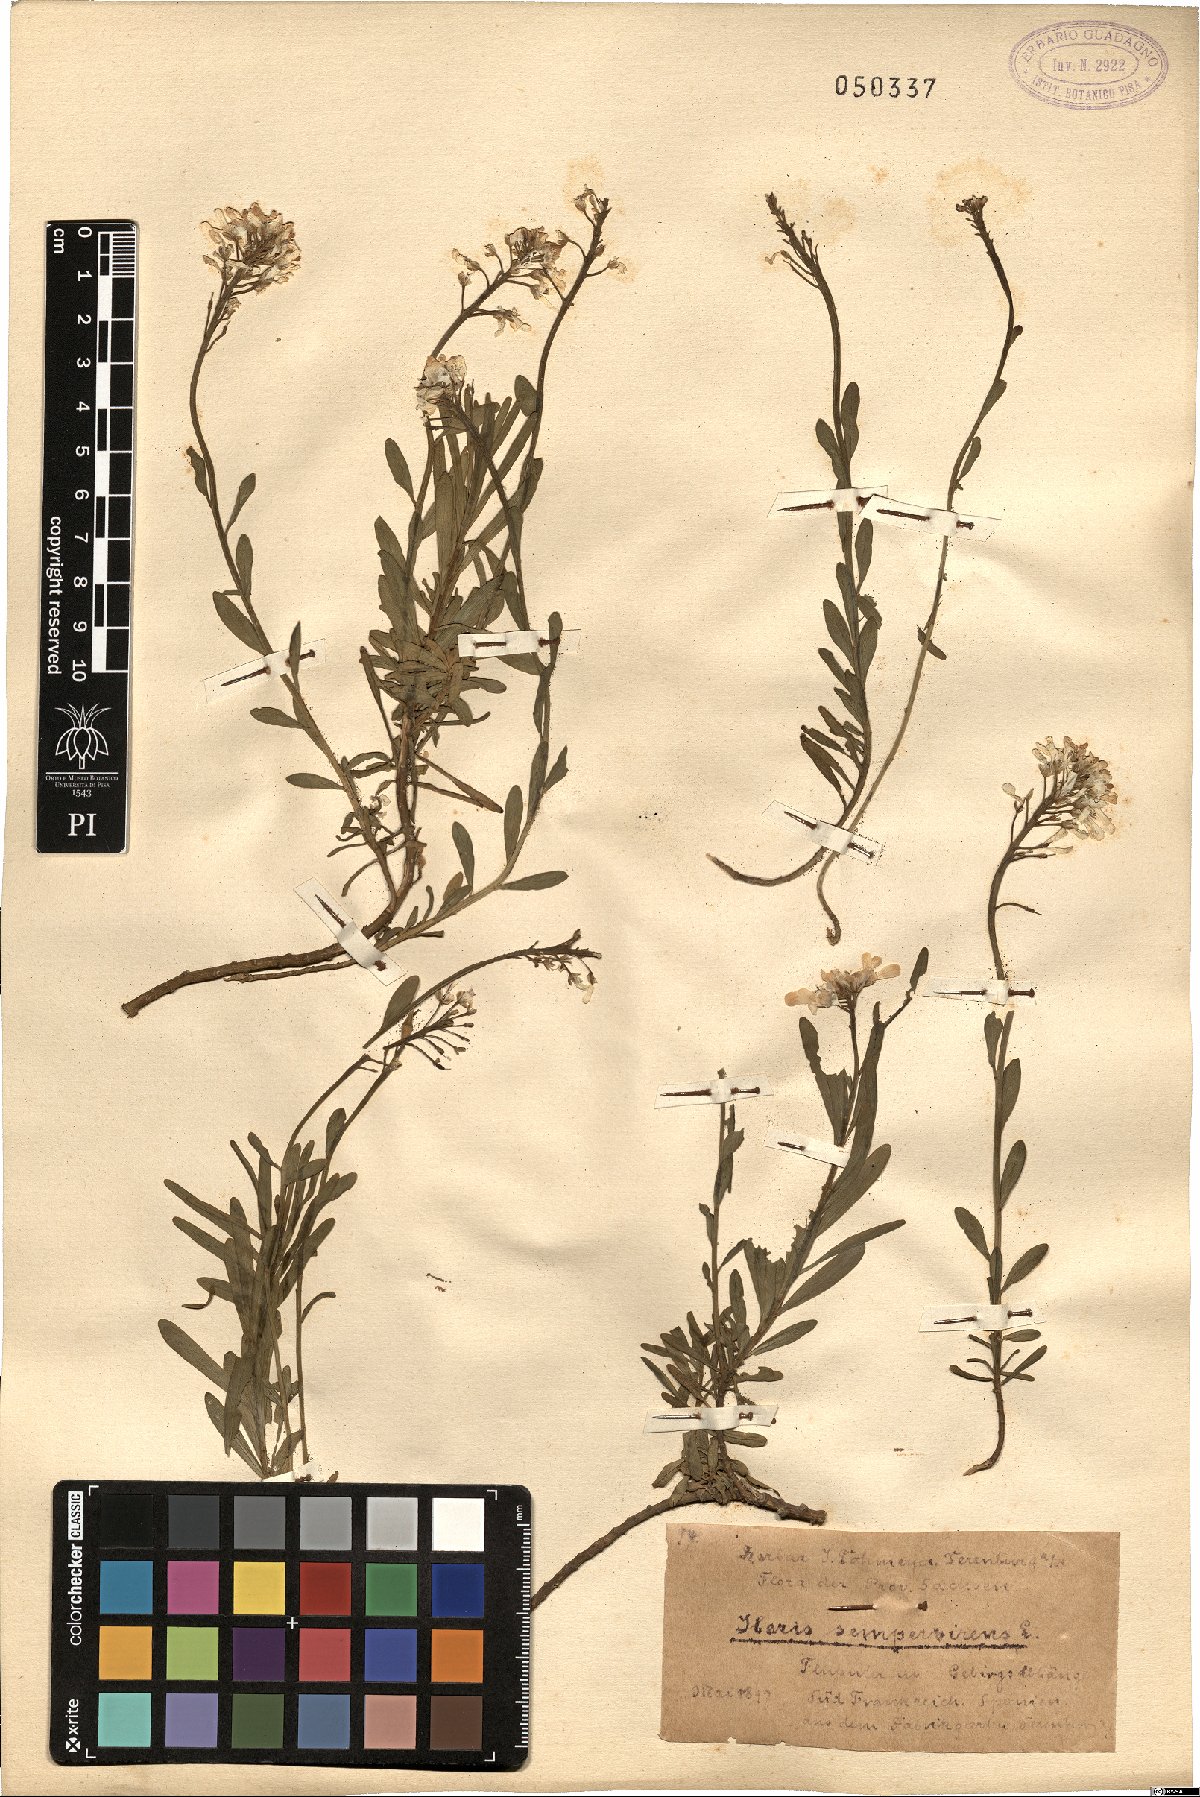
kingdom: Plantae
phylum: Tracheophyta
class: Magnoliopsida
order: Brassicales
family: Brassicaceae
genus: Iberis
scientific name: Iberis sempervirens
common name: Evergreen candytuft
